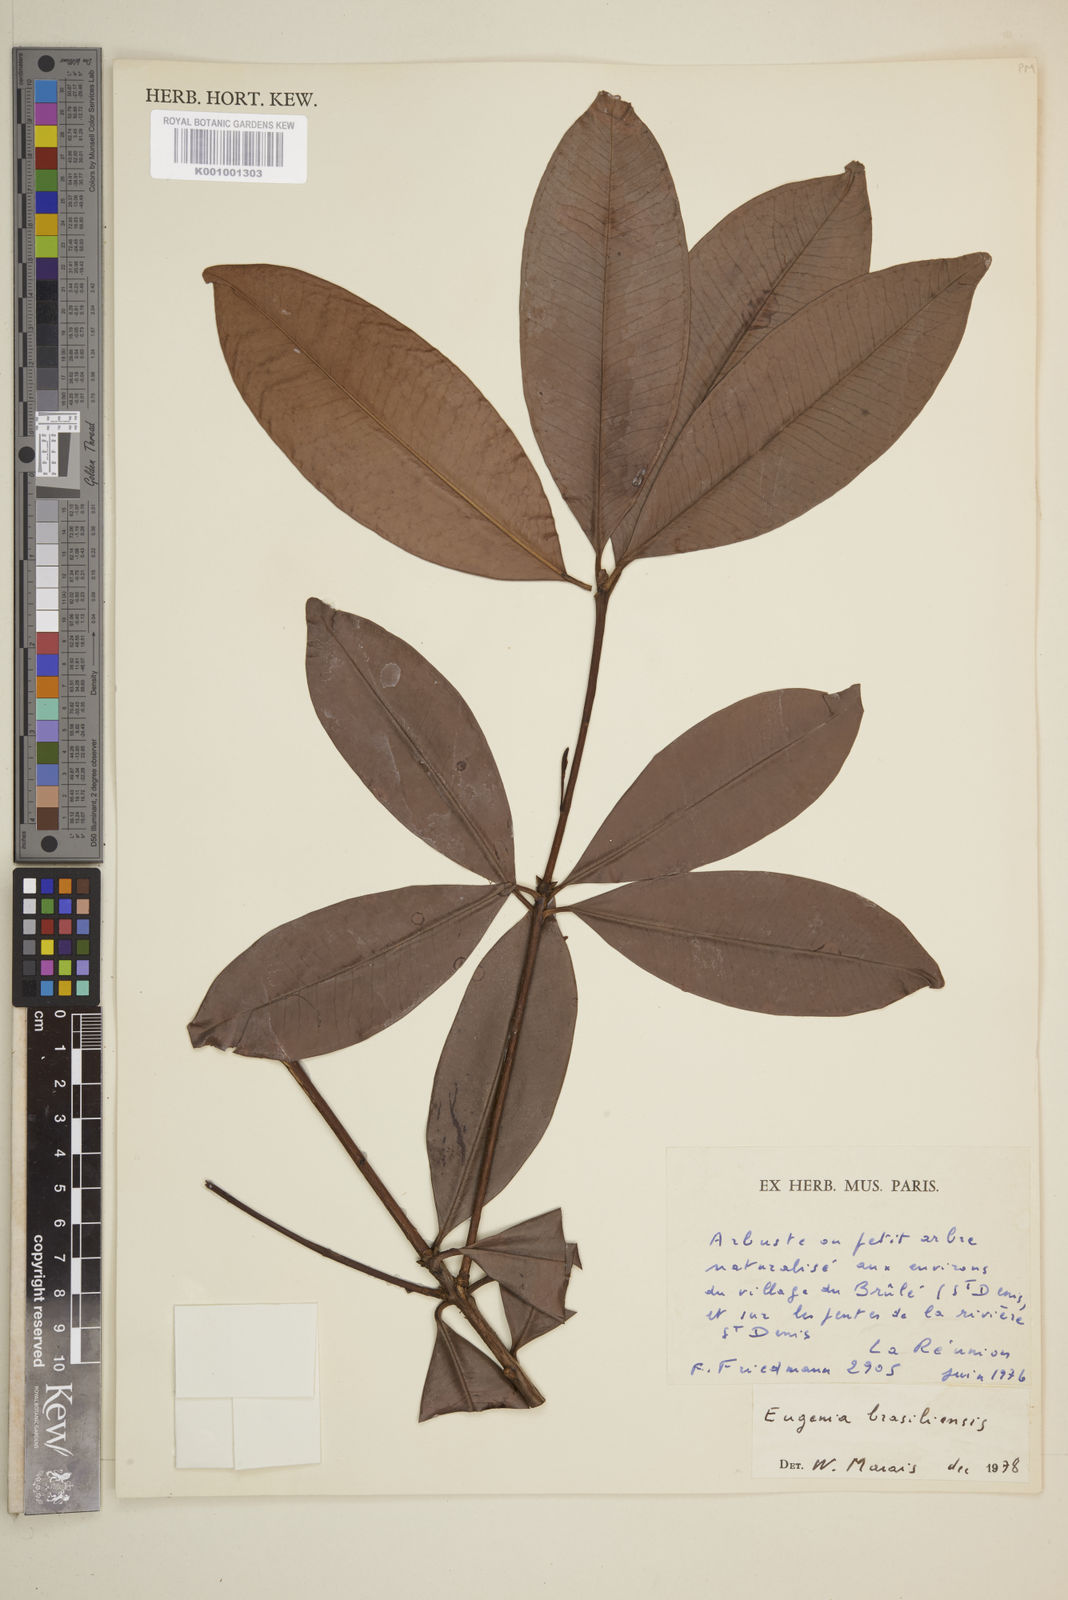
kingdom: Plantae
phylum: Tracheophyta
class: Magnoliopsida
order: Myrtales
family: Myrtaceae
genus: Eugenia
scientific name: Eugenia brasiliensis
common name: Grumichama
